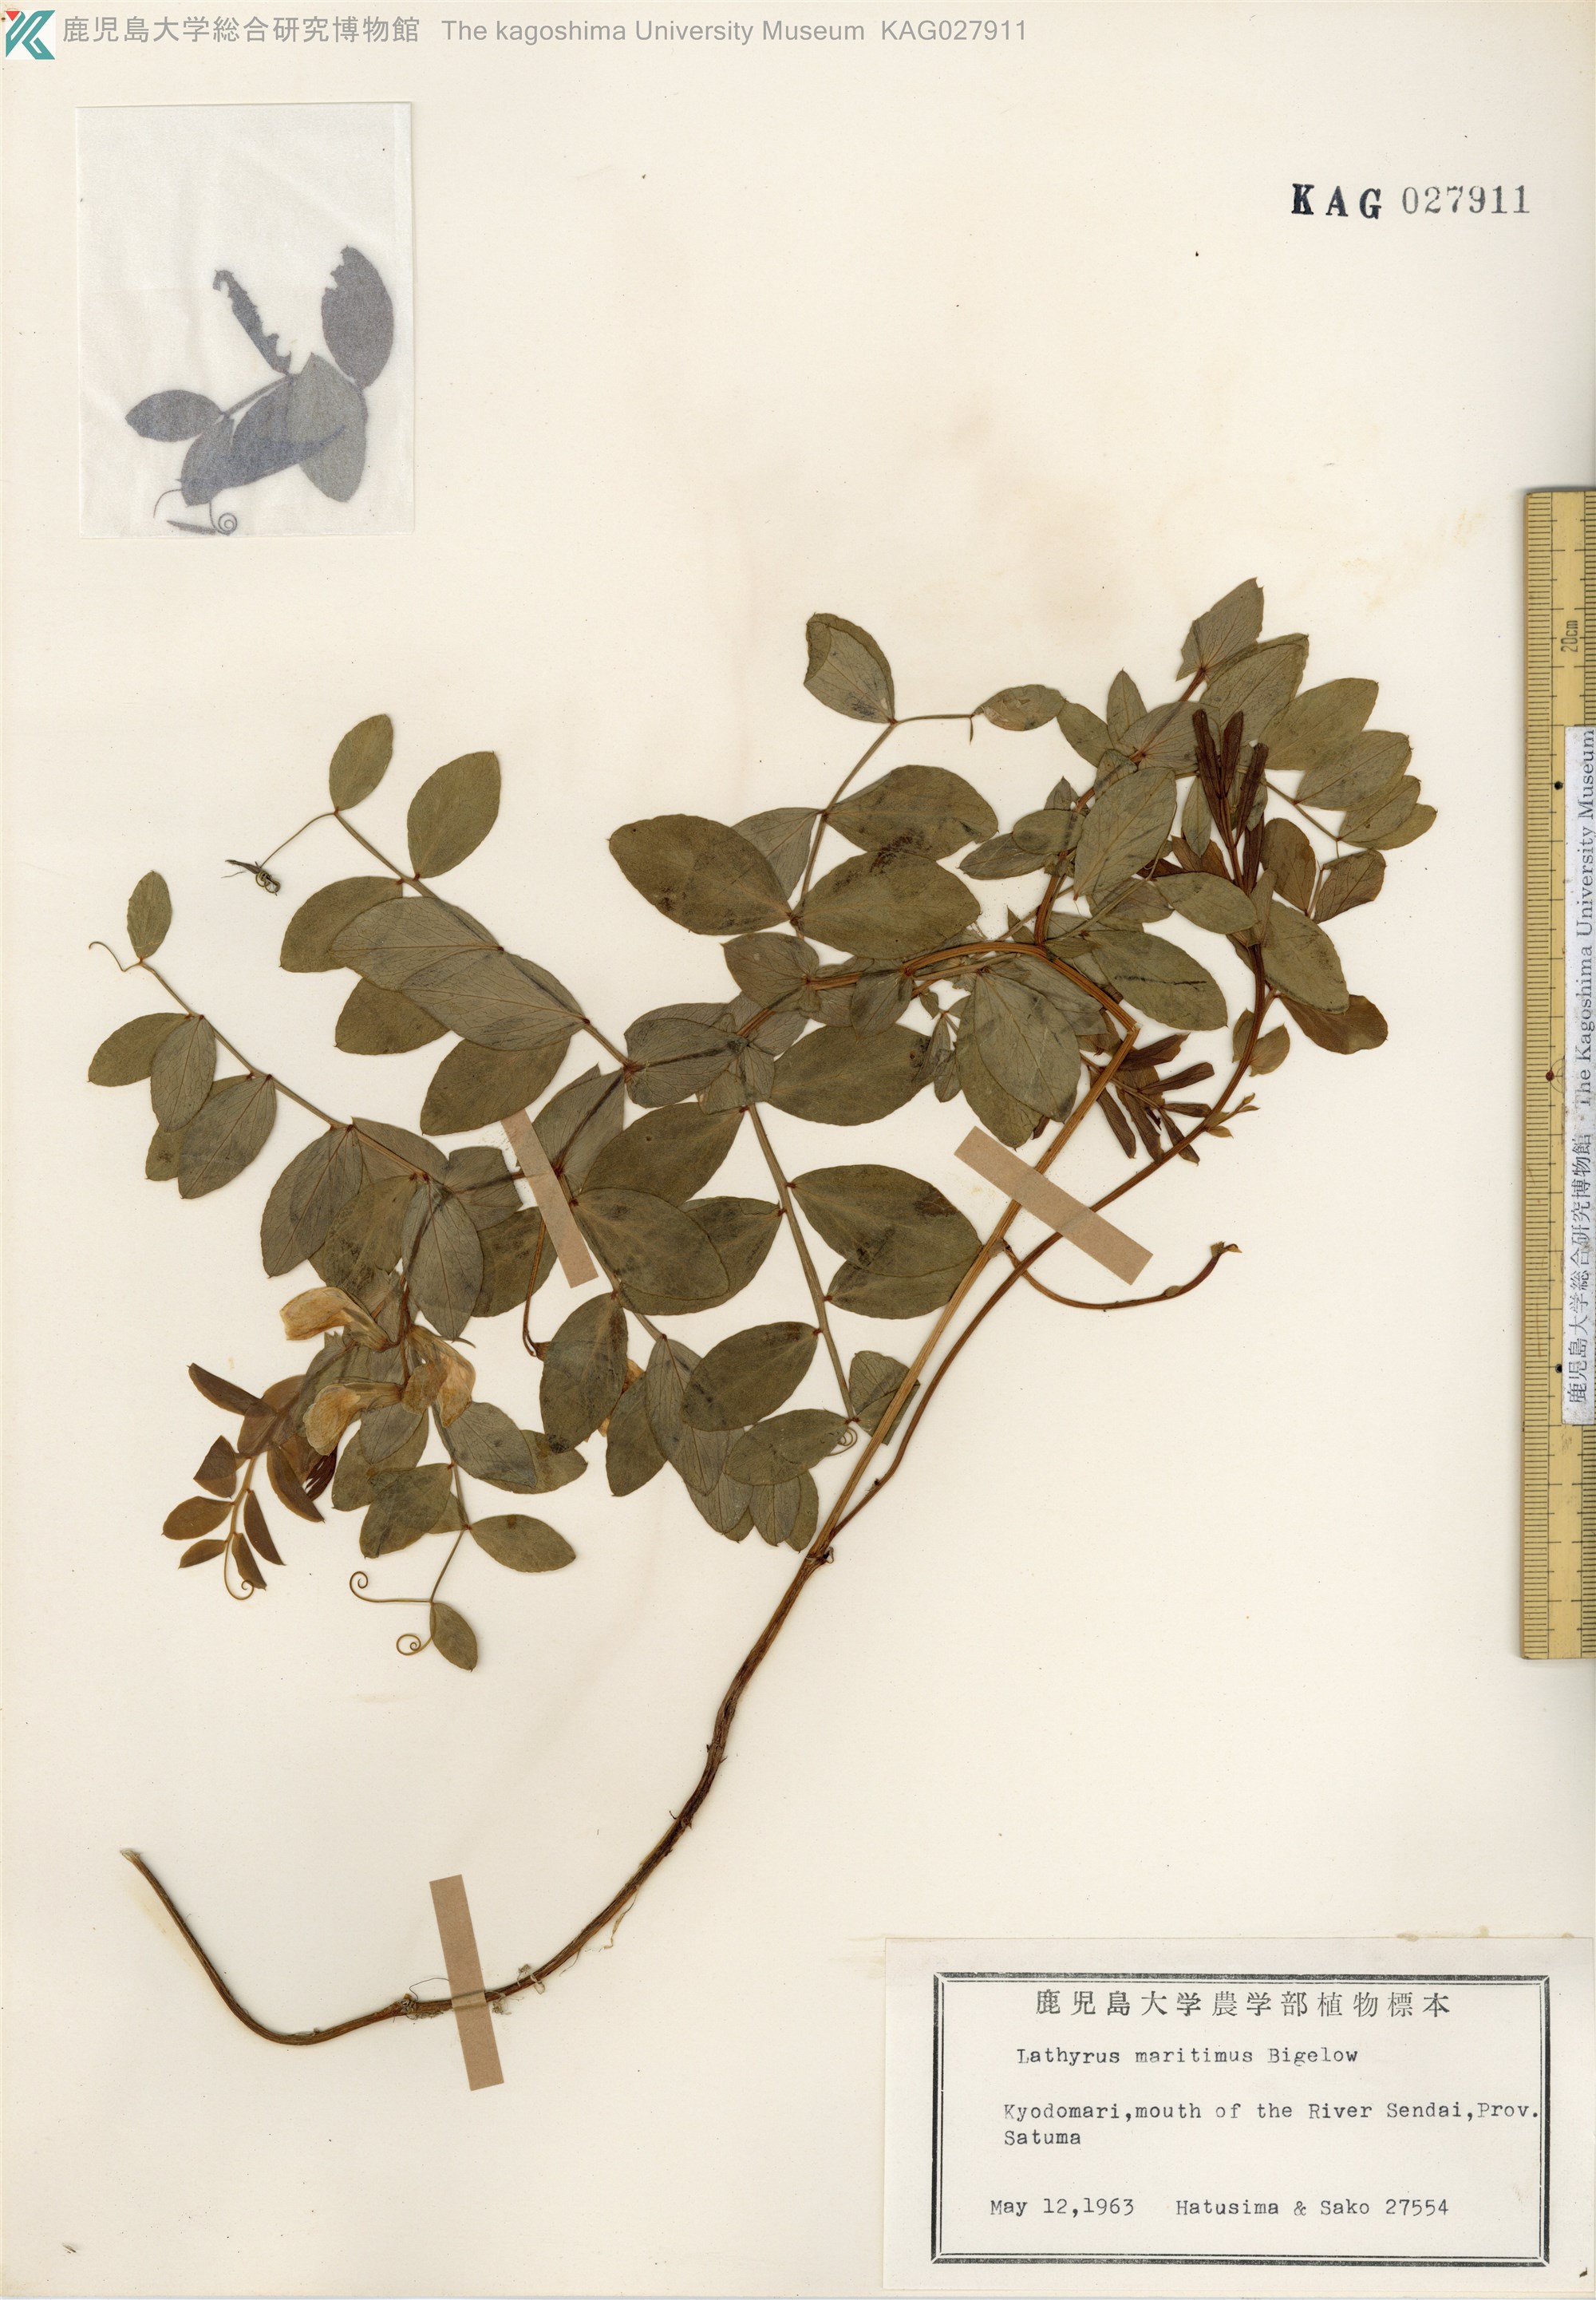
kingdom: Plantae
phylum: Tracheophyta
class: Magnoliopsida
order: Fabales
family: Fabaceae
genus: Lathyrus
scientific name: Lathyrus japonicus
